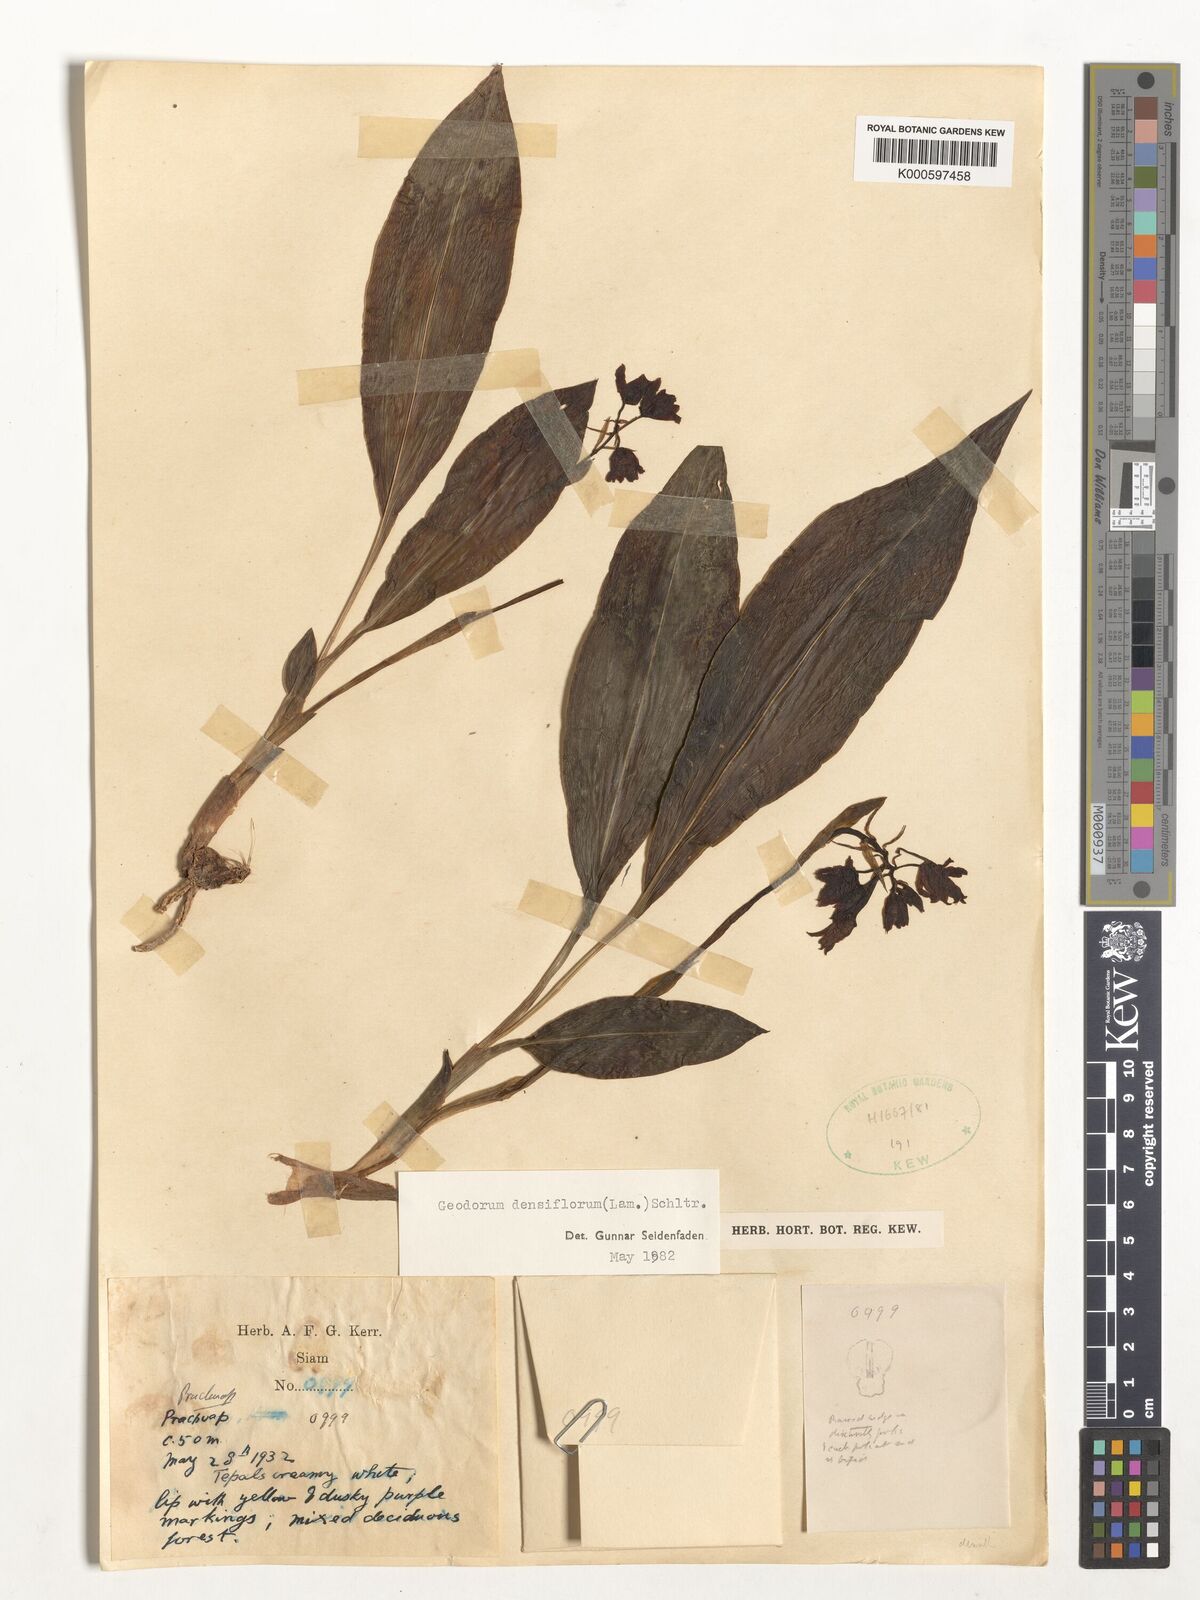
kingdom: Plantae
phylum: Tracheophyta
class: Liliopsida
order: Asparagales
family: Orchidaceae
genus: Eulophia
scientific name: Eulophia cernua
